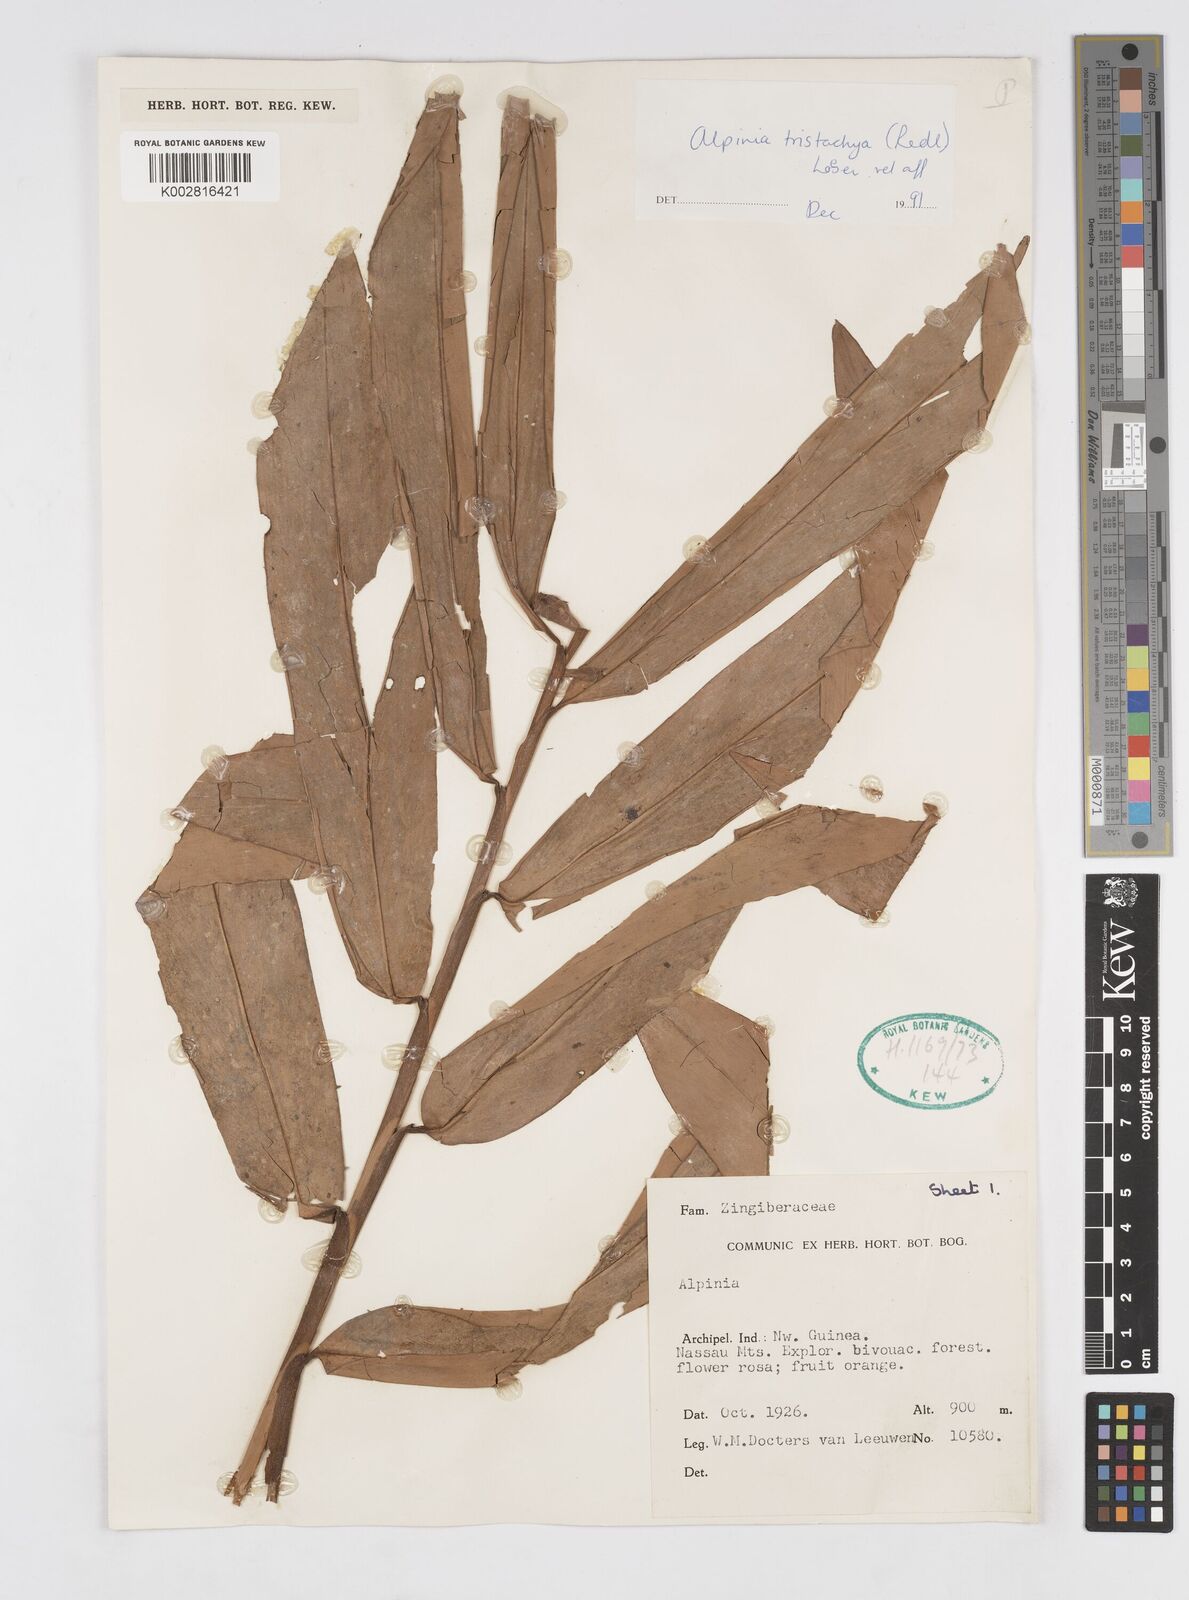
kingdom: Plantae
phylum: Tracheophyta
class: Liliopsida
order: Zingiberales
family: Zingiberaceae
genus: Alpinia
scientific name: Alpinia tristachya
